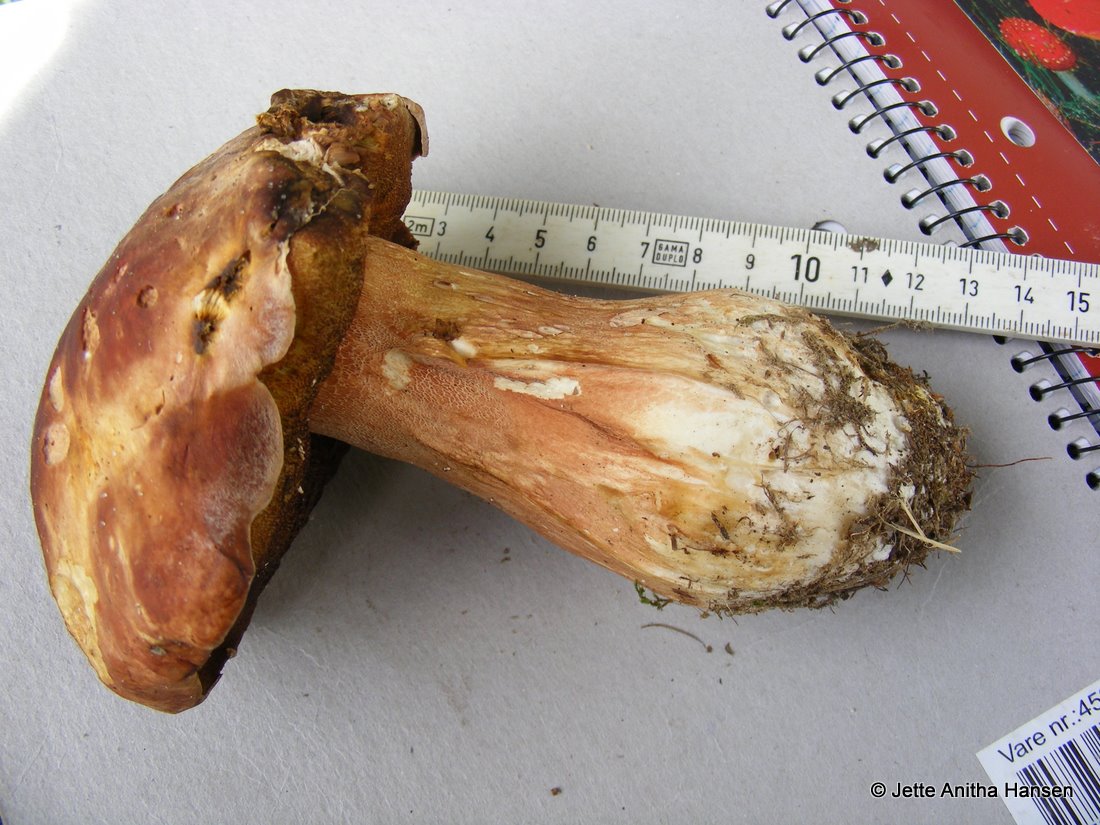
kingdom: Fungi
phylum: Basidiomycota
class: Agaricomycetes
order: Boletales
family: Boletaceae
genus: Boletus
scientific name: Boletus pinophilus
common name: rødbrun rørhat
